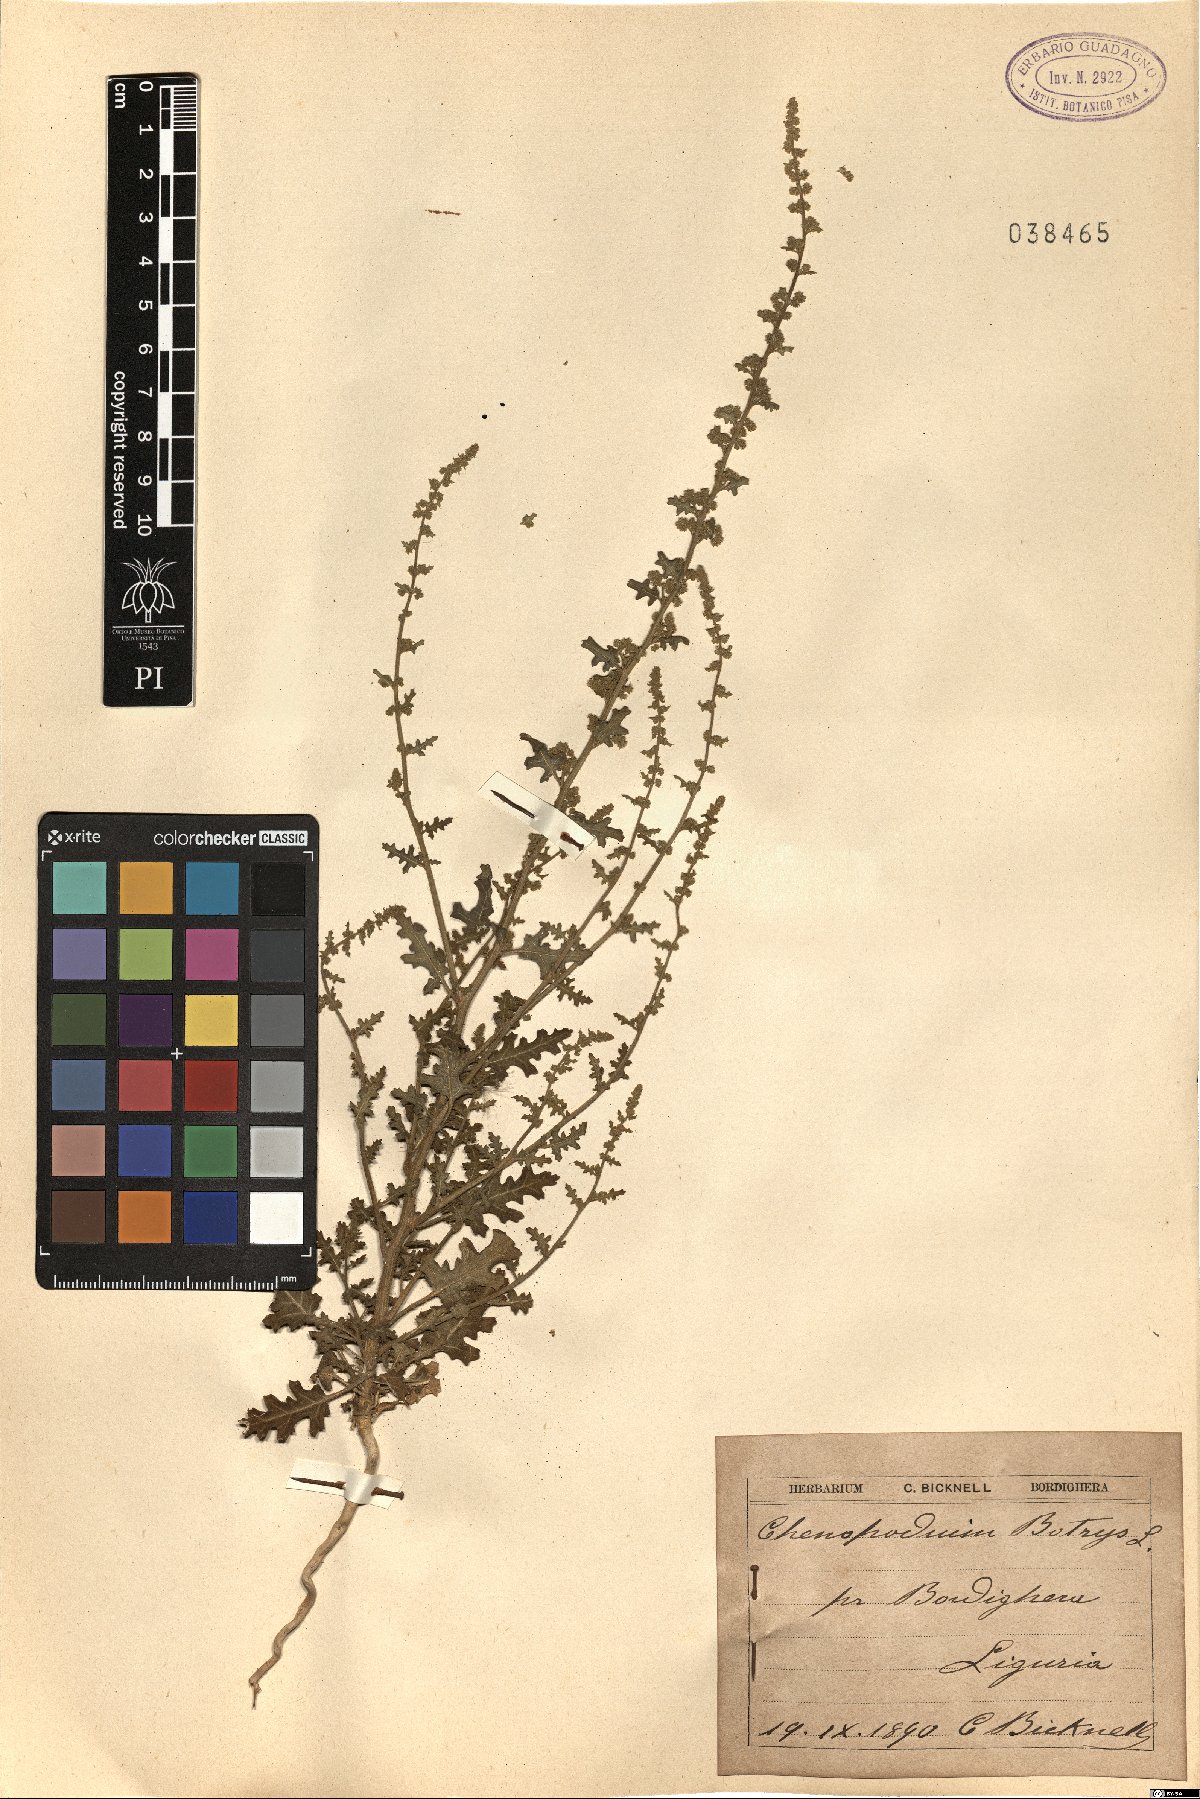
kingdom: Plantae
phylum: Tracheophyta
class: Magnoliopsida
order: Caryophyllales
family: Amaranthaceae
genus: Dysphania
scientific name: Dysphania botrys
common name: Feather-geranium
